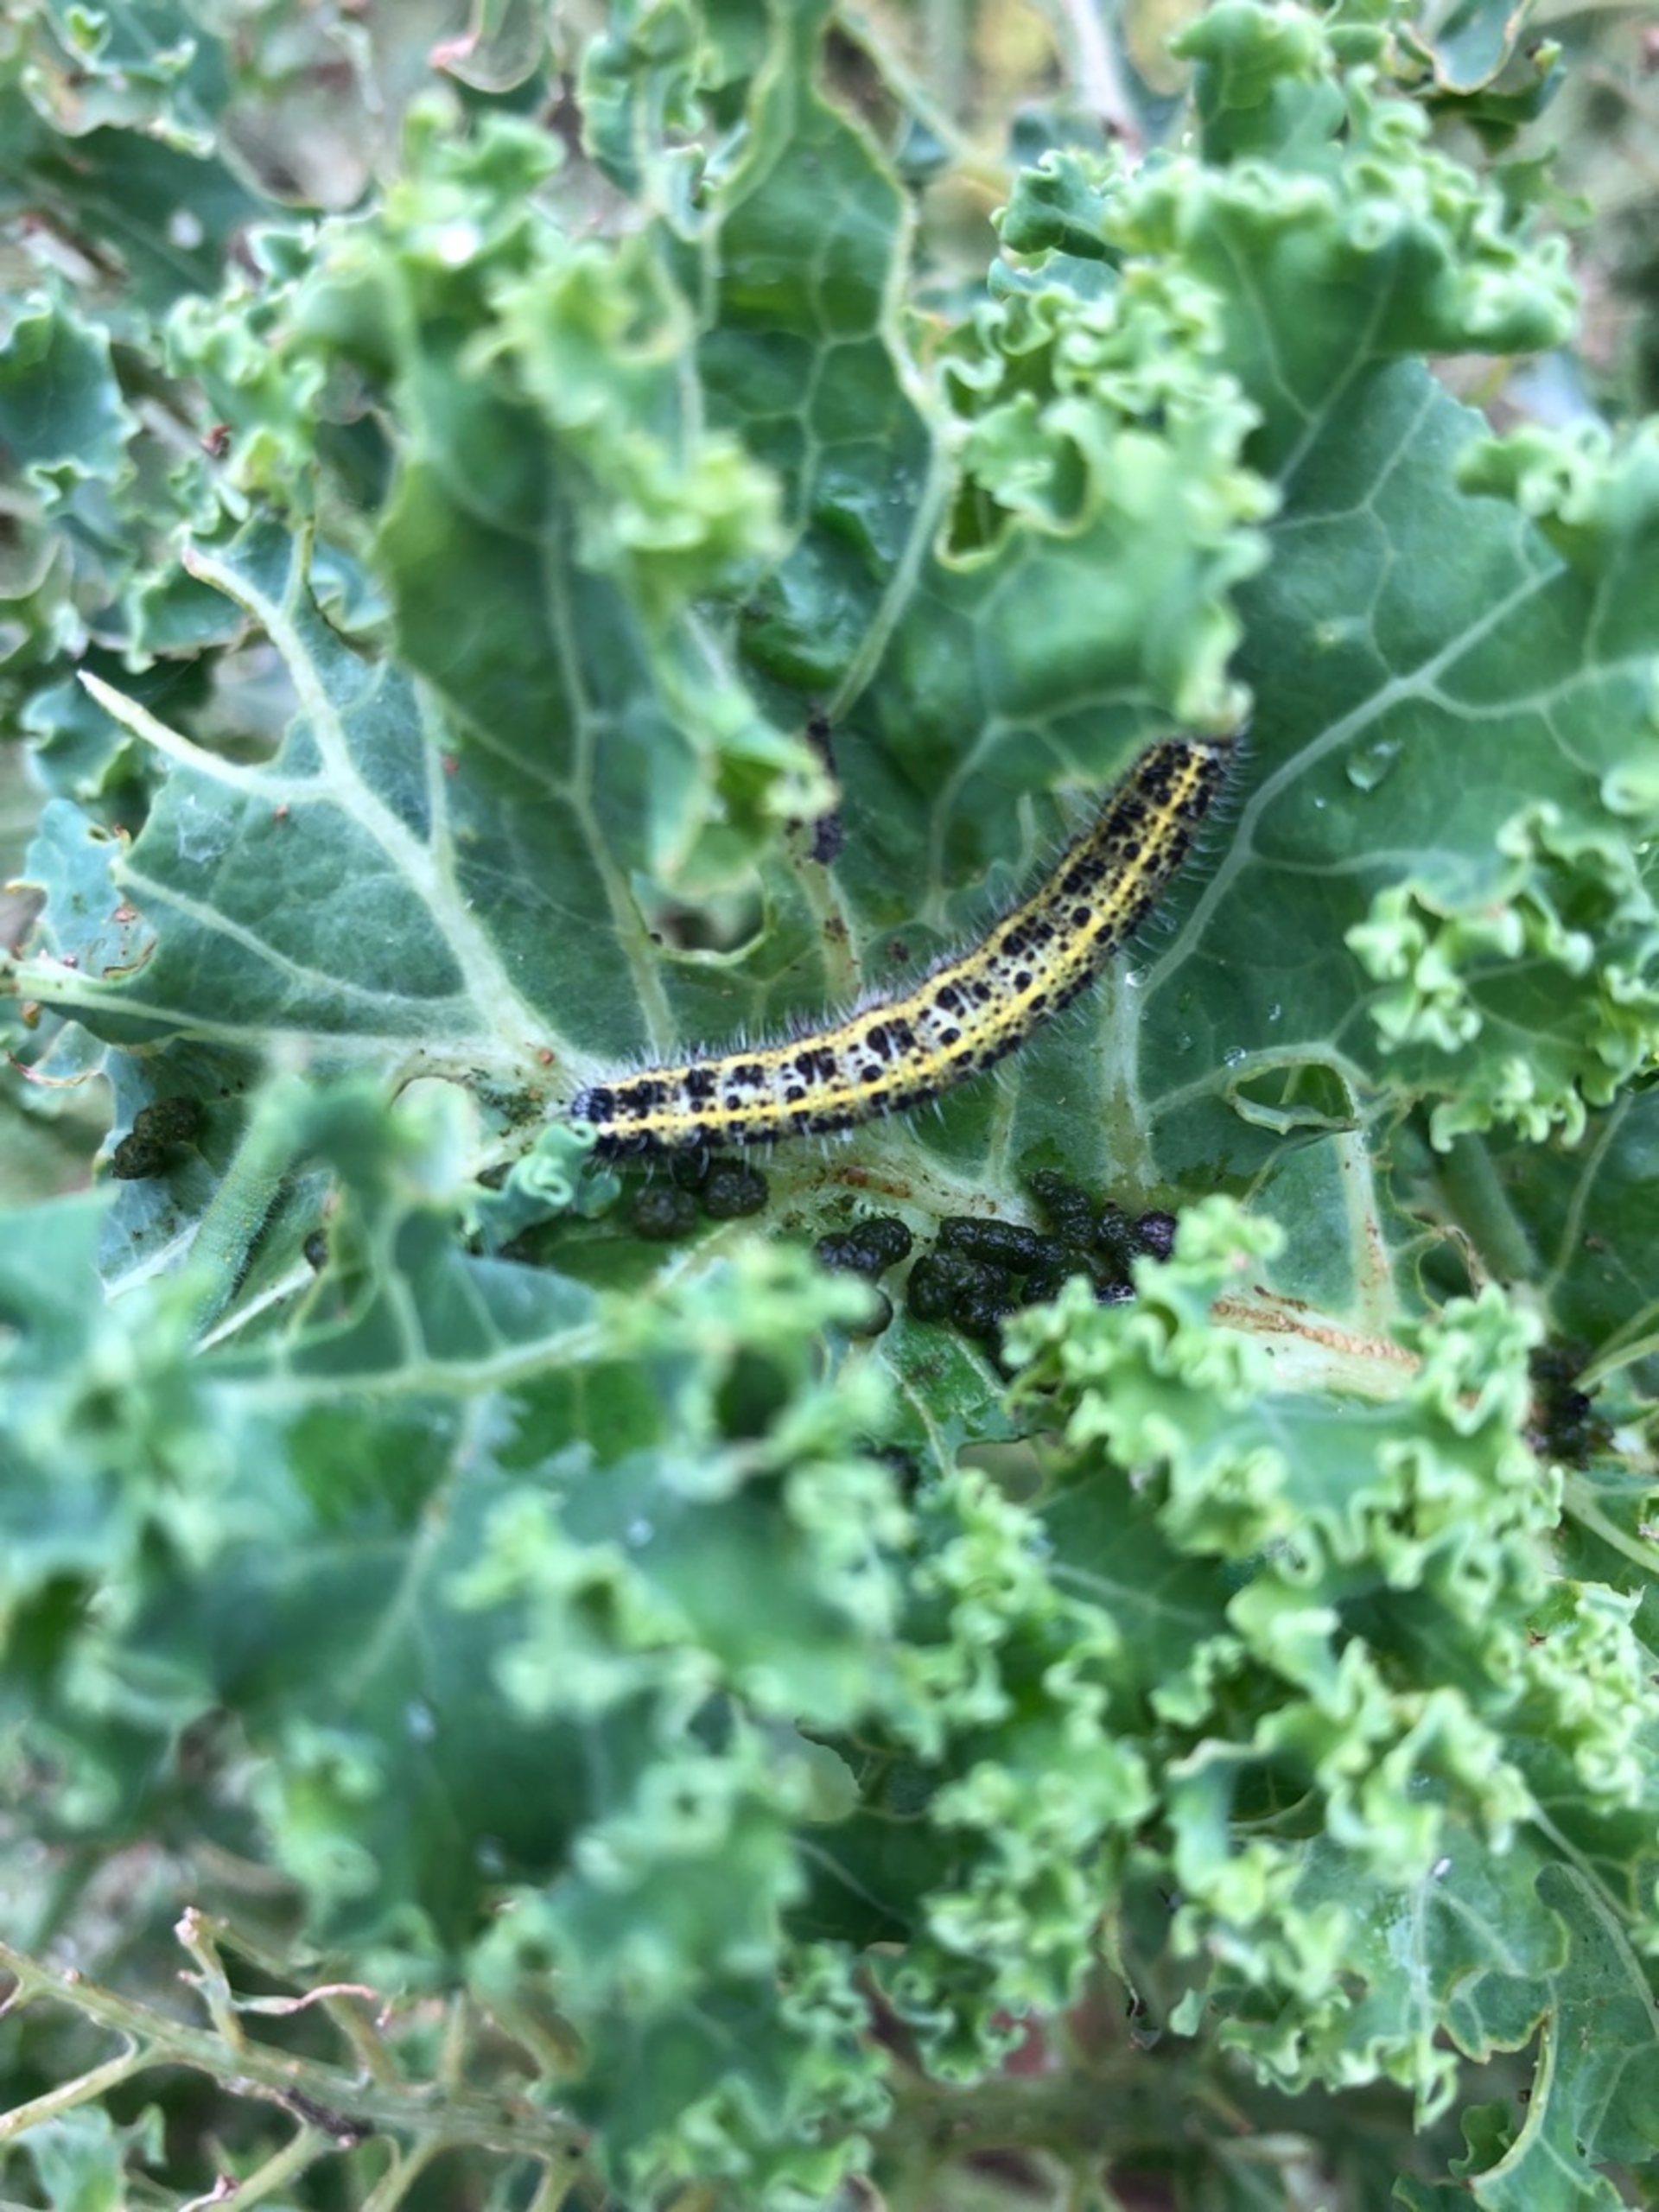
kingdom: Animalia
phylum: Arthropoda
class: Insecta
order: Lepidoptera
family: Pieridae
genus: Pieris
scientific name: Pieris brassicae
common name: Stor kålsommerfugl
